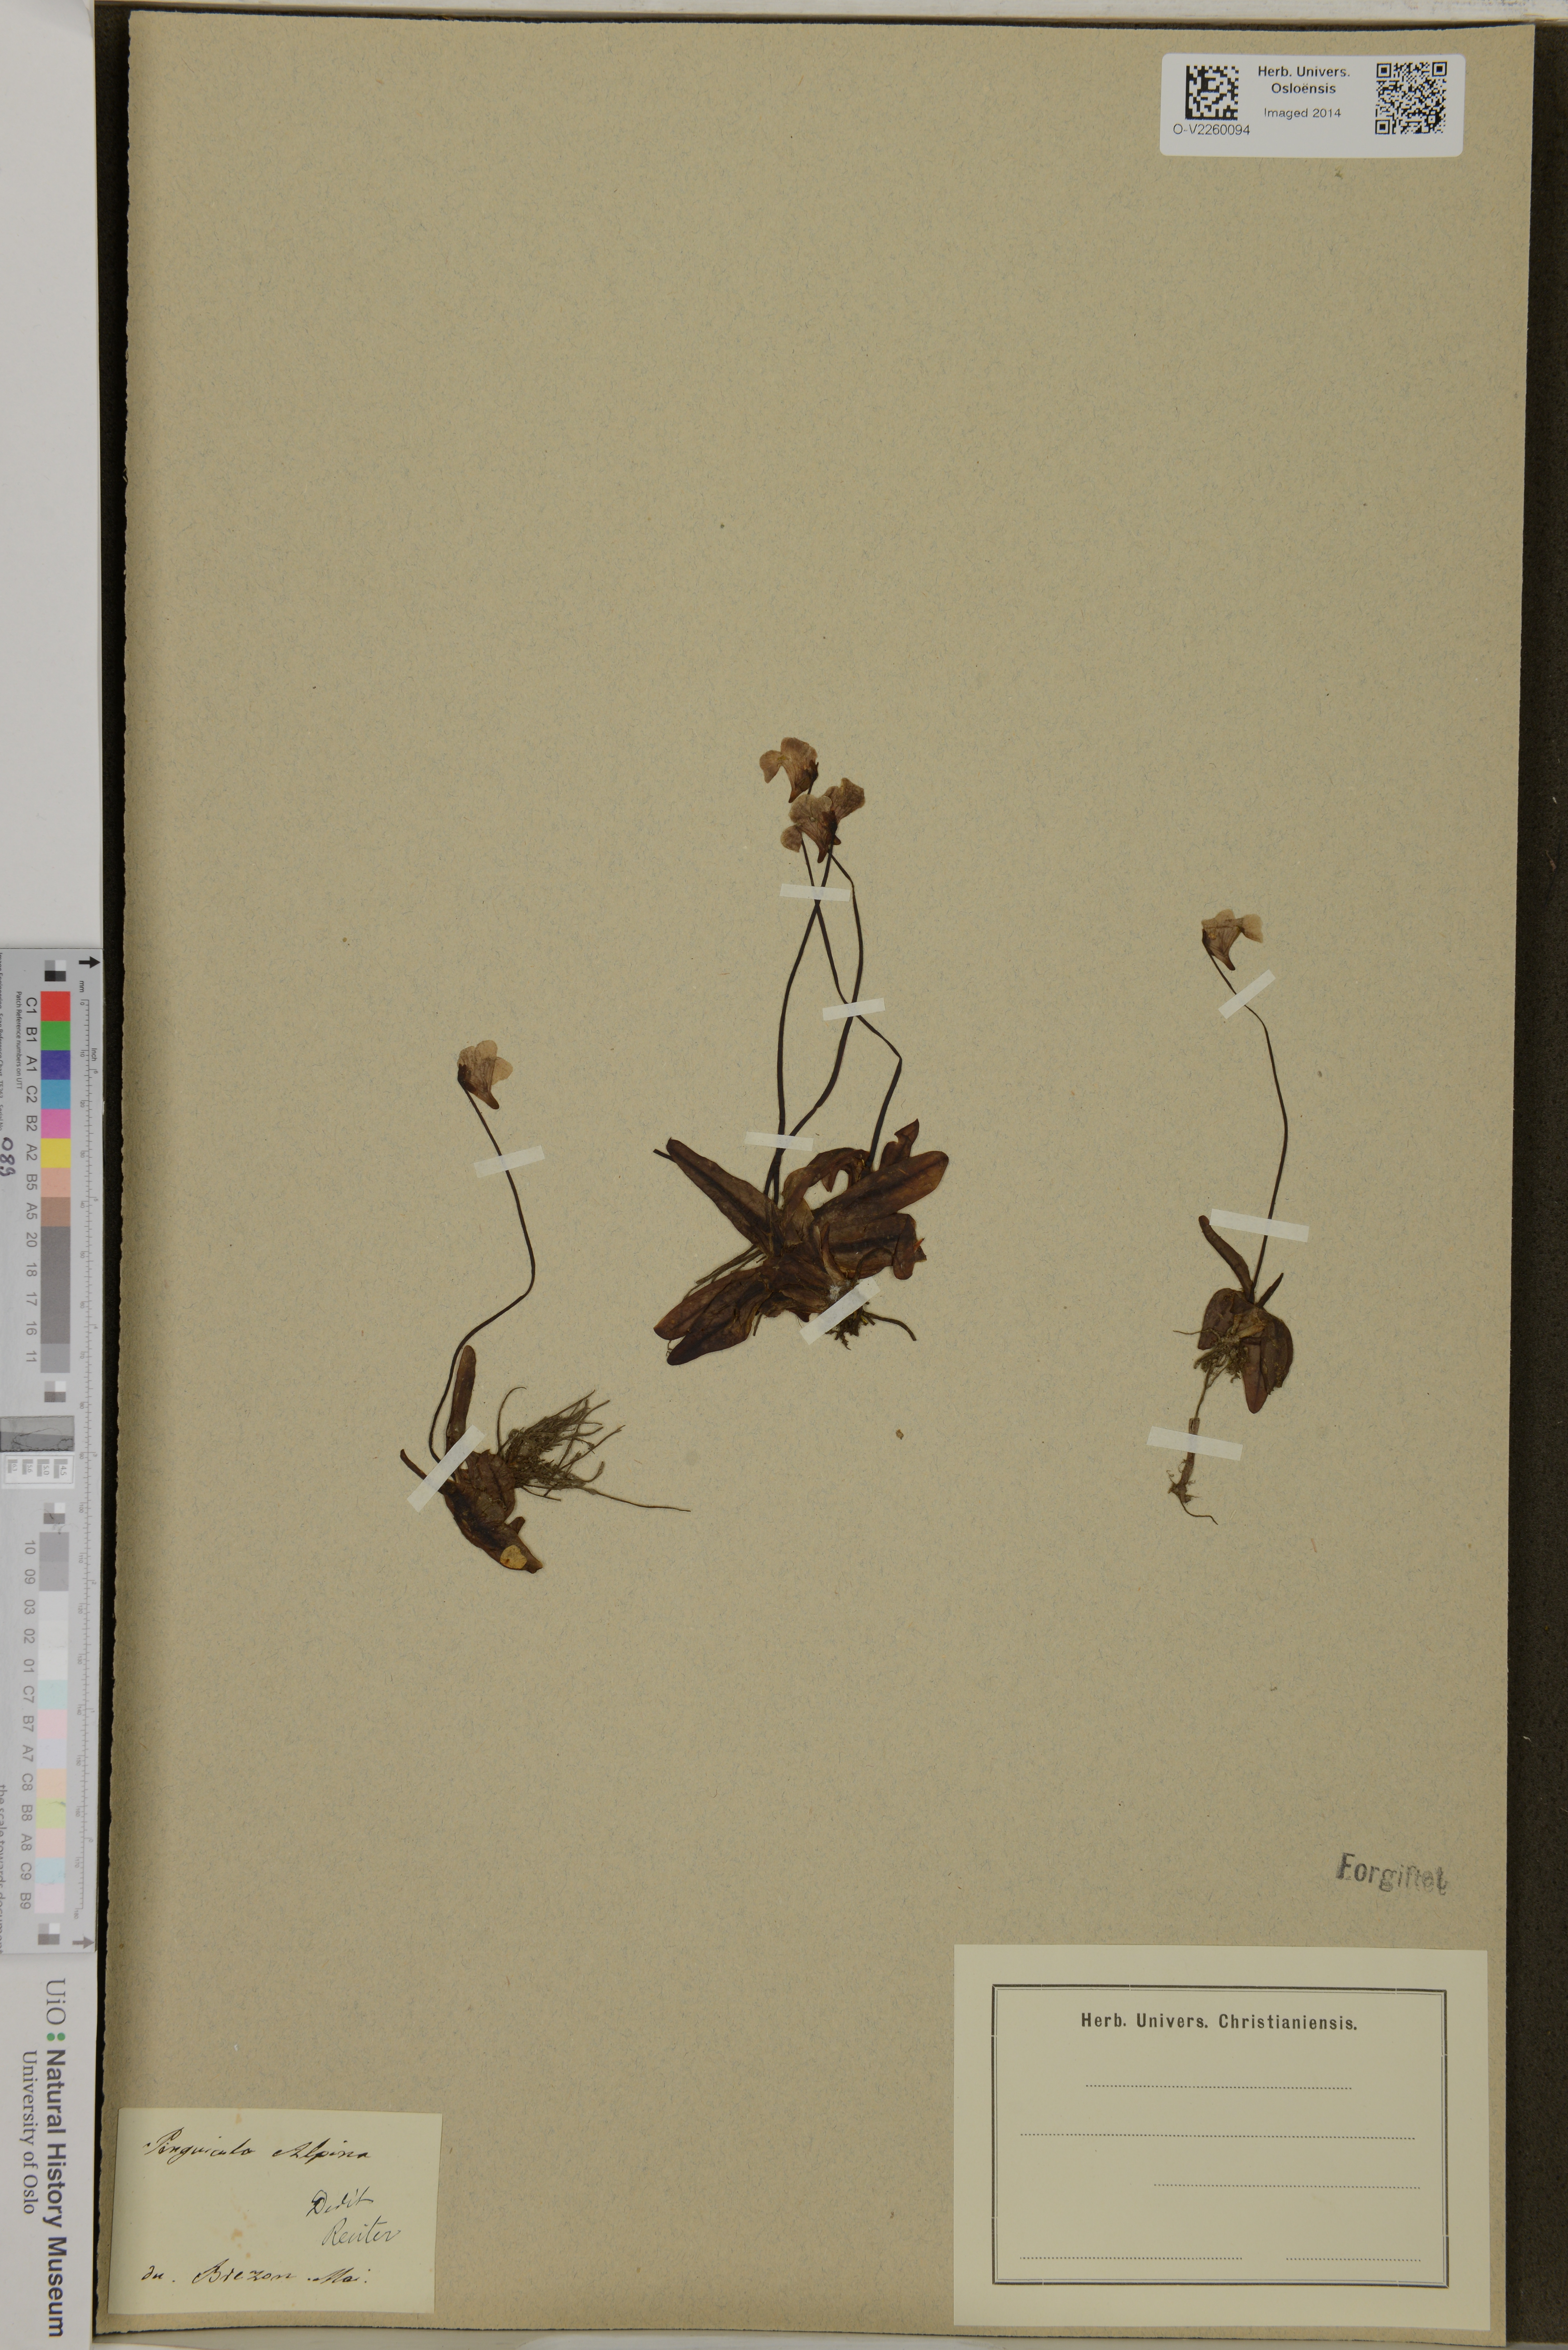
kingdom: Plantae
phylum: Tracheophyta
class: Magnoliopsida
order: Lamiales
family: Lentibulariaceae
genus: Pinguicula
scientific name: Pinguicula alpina
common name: Alpine butterwort
